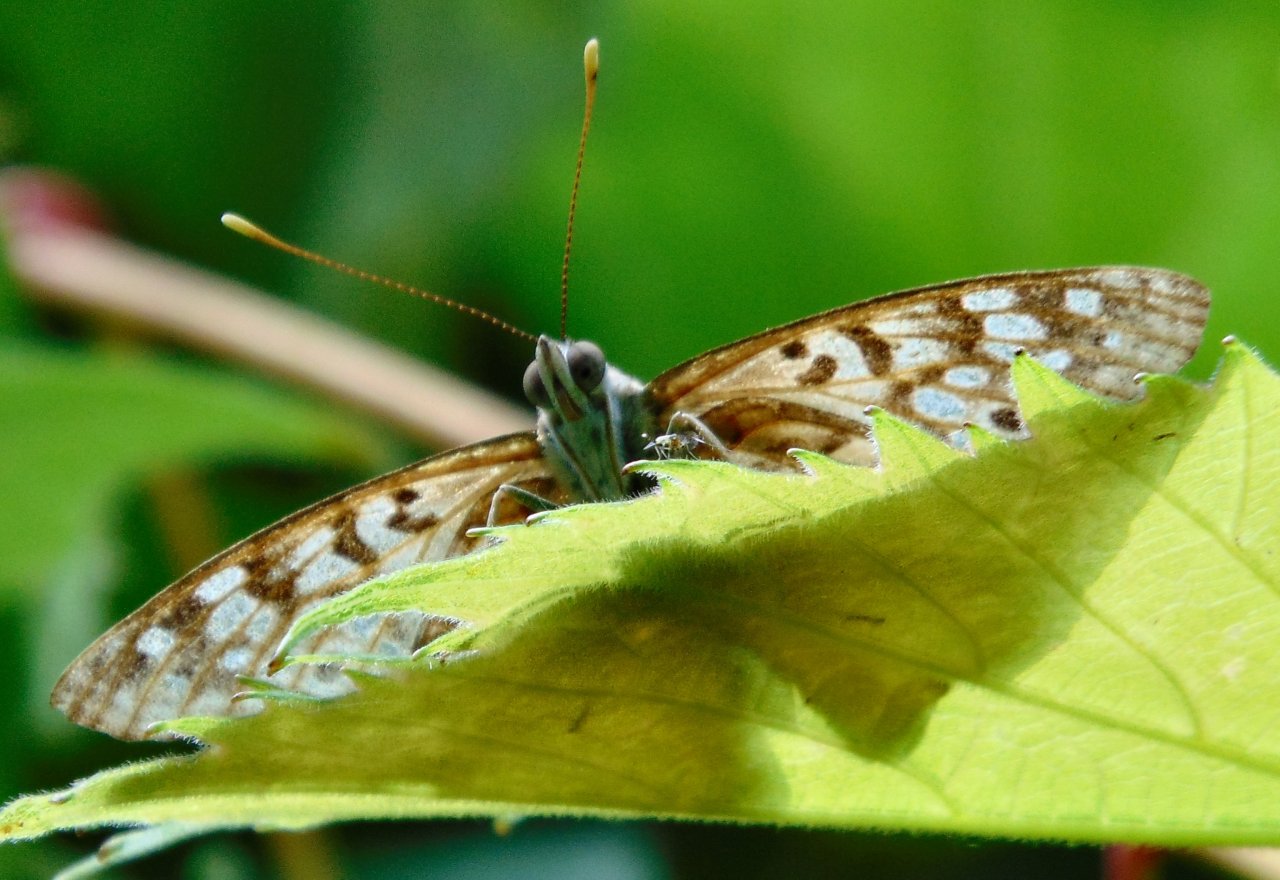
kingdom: Animalia
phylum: Arthropoda
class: Insecta
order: Lepidoptera
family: Nymphalidae
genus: Asterocampa
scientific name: Asterocampa celtis
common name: Hackberry Emperor
